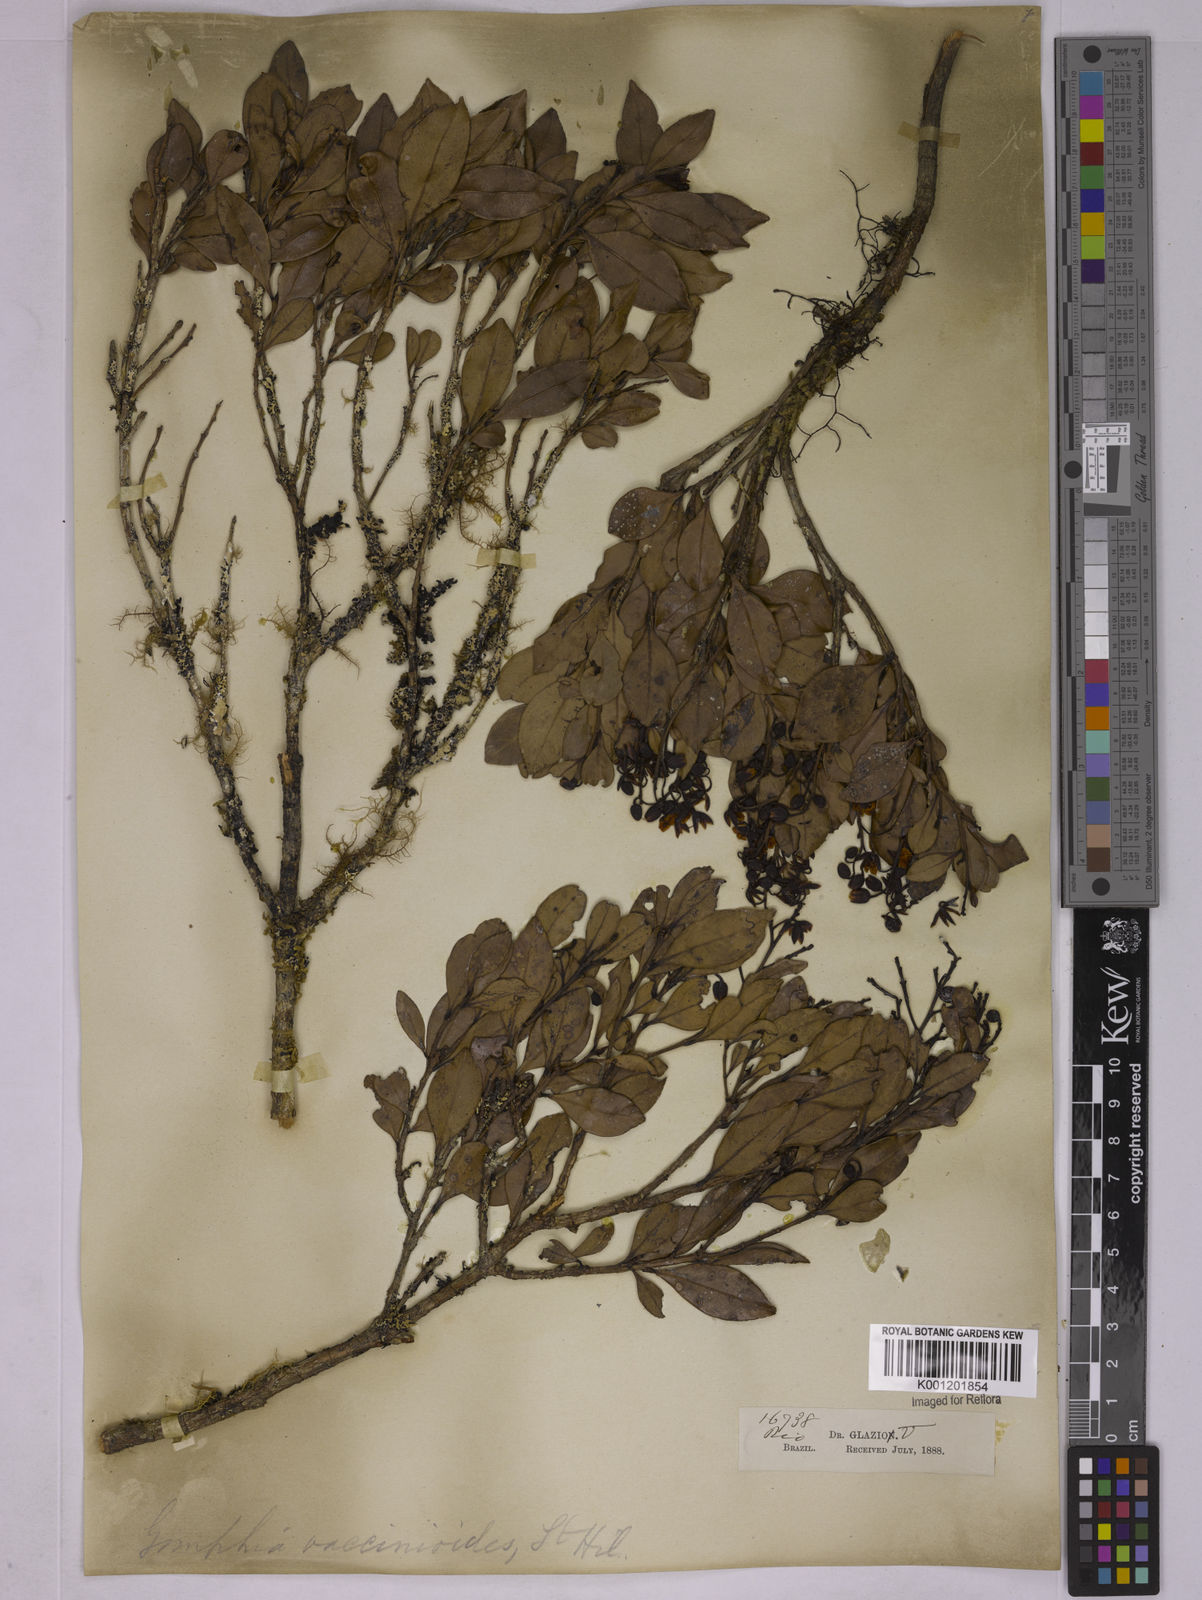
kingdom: Plantae
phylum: Tracheophyta
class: Magnoliopsida
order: Malpighiales
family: Ochnaceae
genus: Ouratea
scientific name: Ouratea vaccinioides
